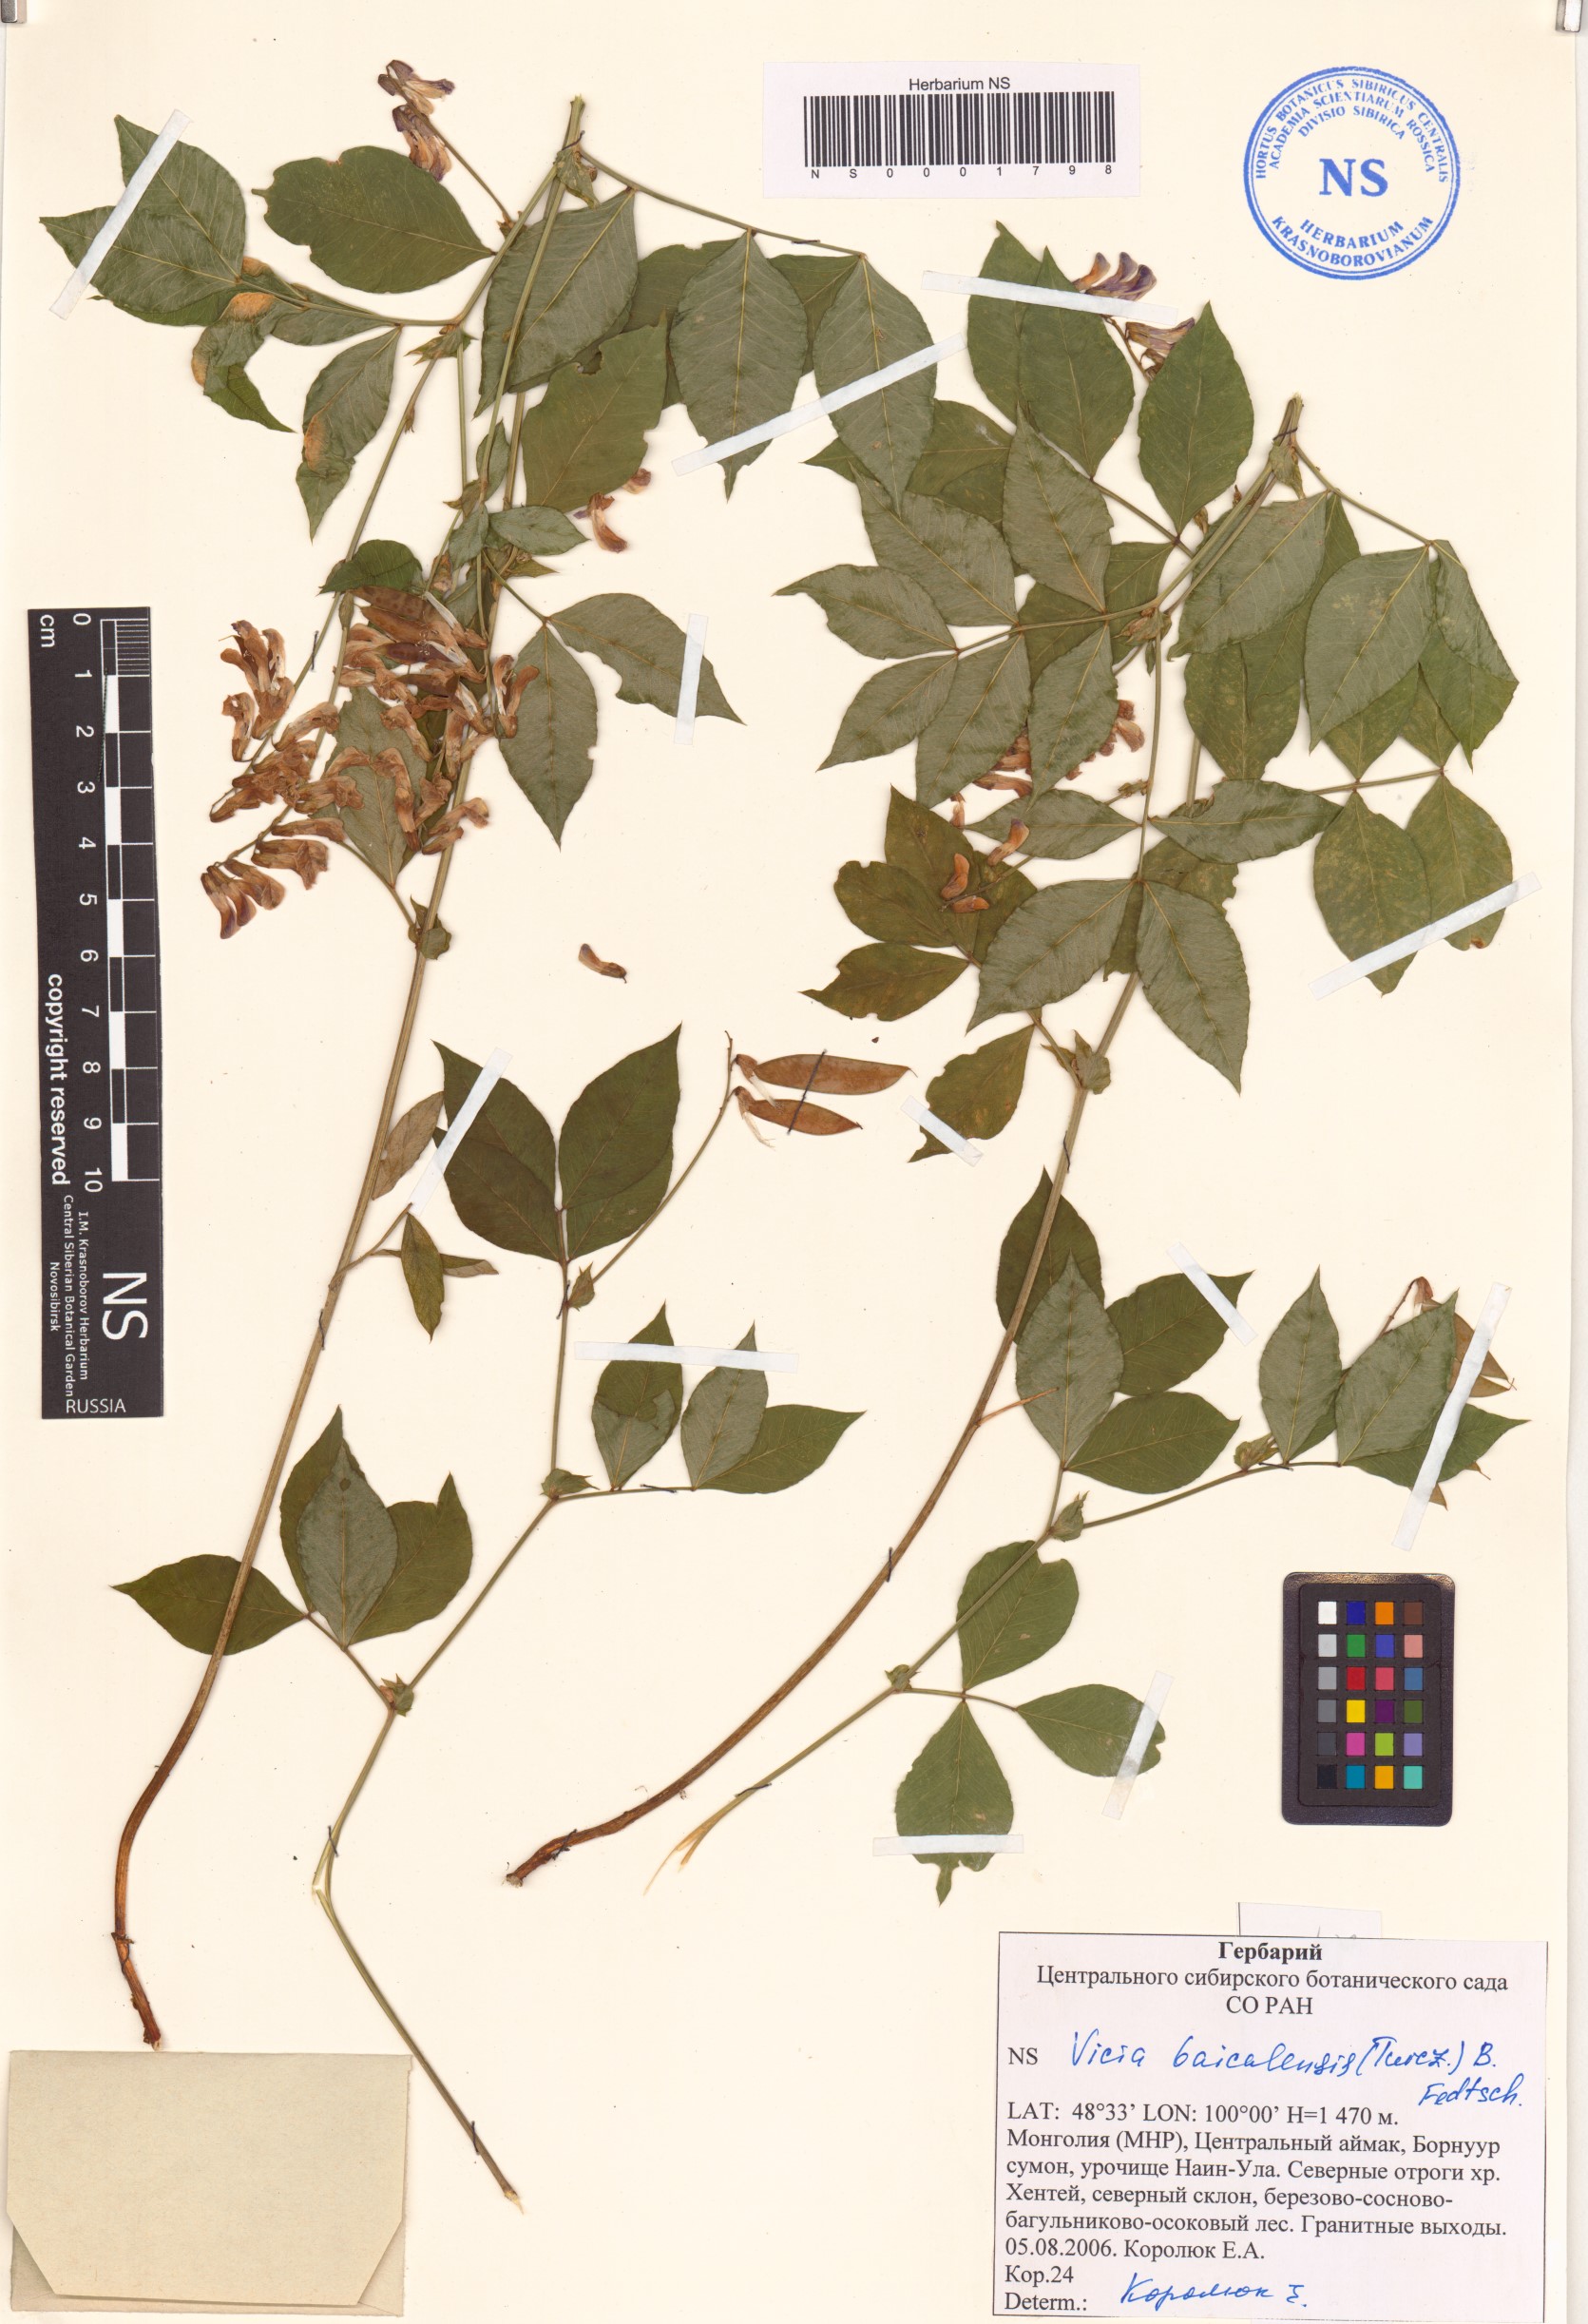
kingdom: Plantae
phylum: Tracheophyta
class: Magnoliopsida
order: Fabales
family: Fabaceae
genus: Vicia
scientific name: Vicia ramuliflora
